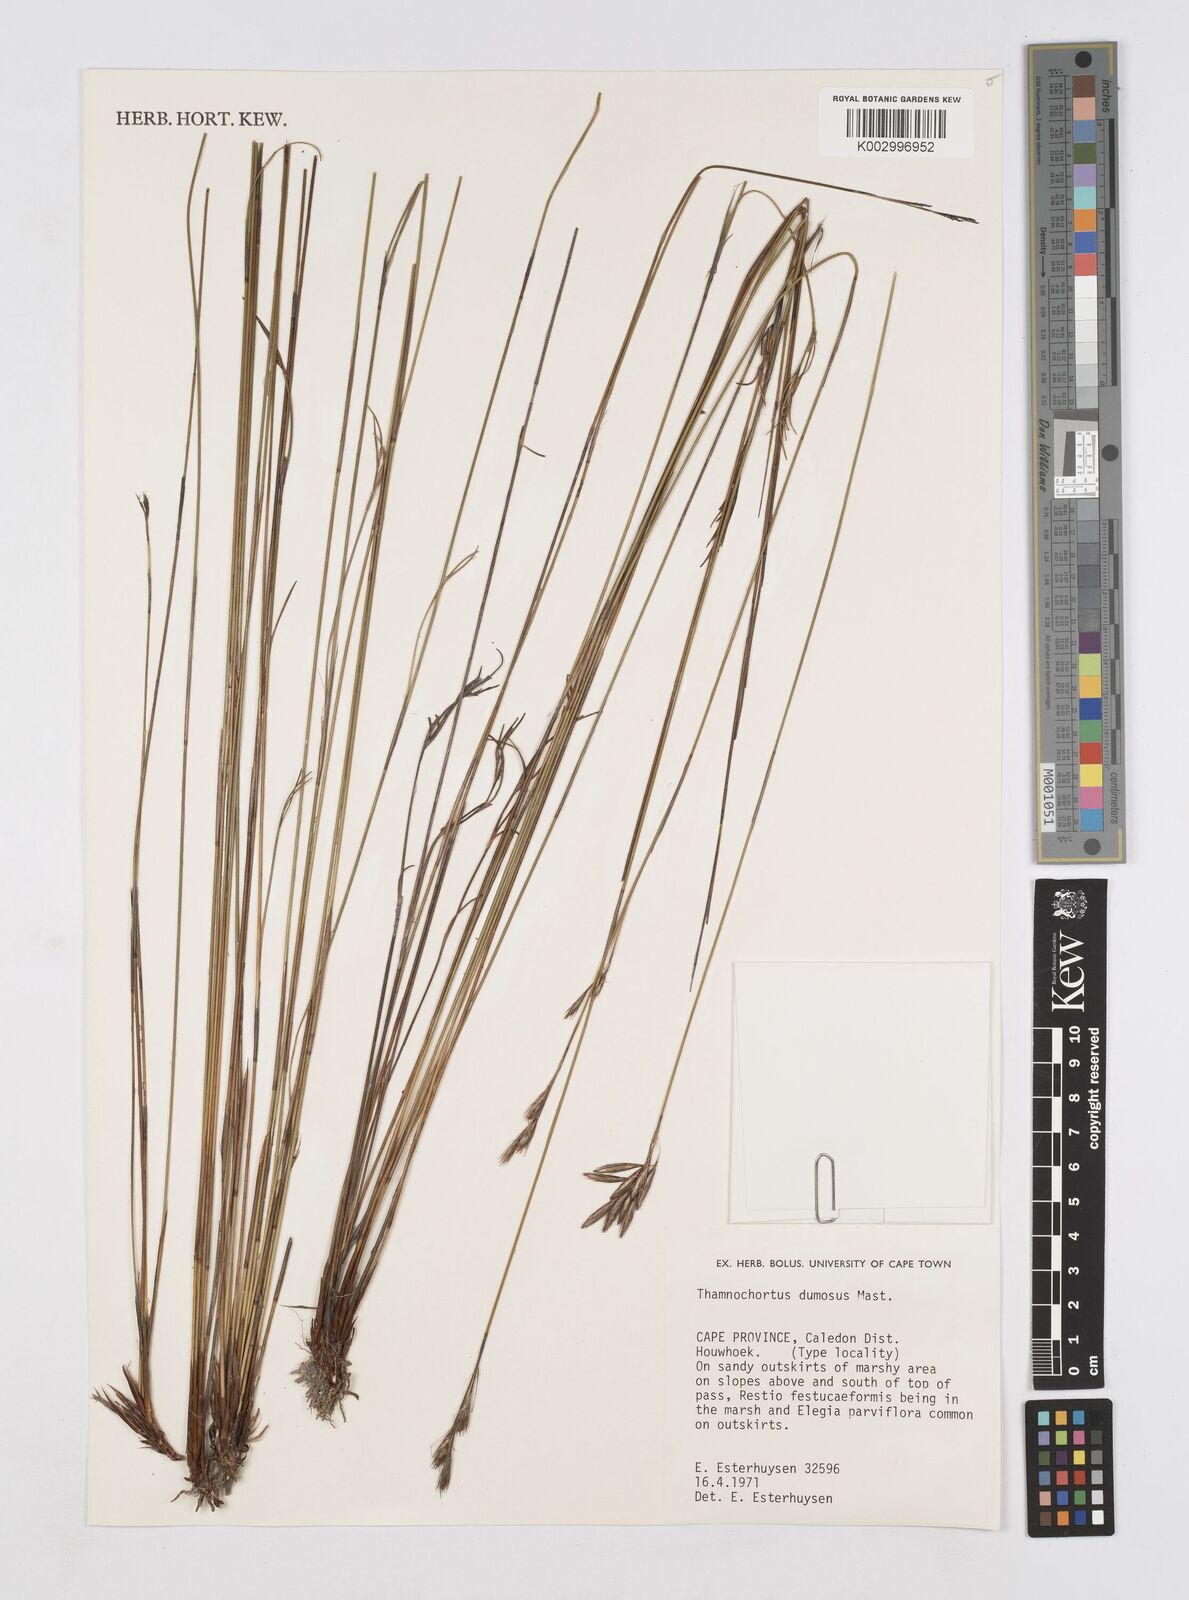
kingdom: Plantae
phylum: Tracheophyta
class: Liliopsida
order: Poales
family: Restionaceae
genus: Thamnochortus
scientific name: Thamnochortus dumosus
